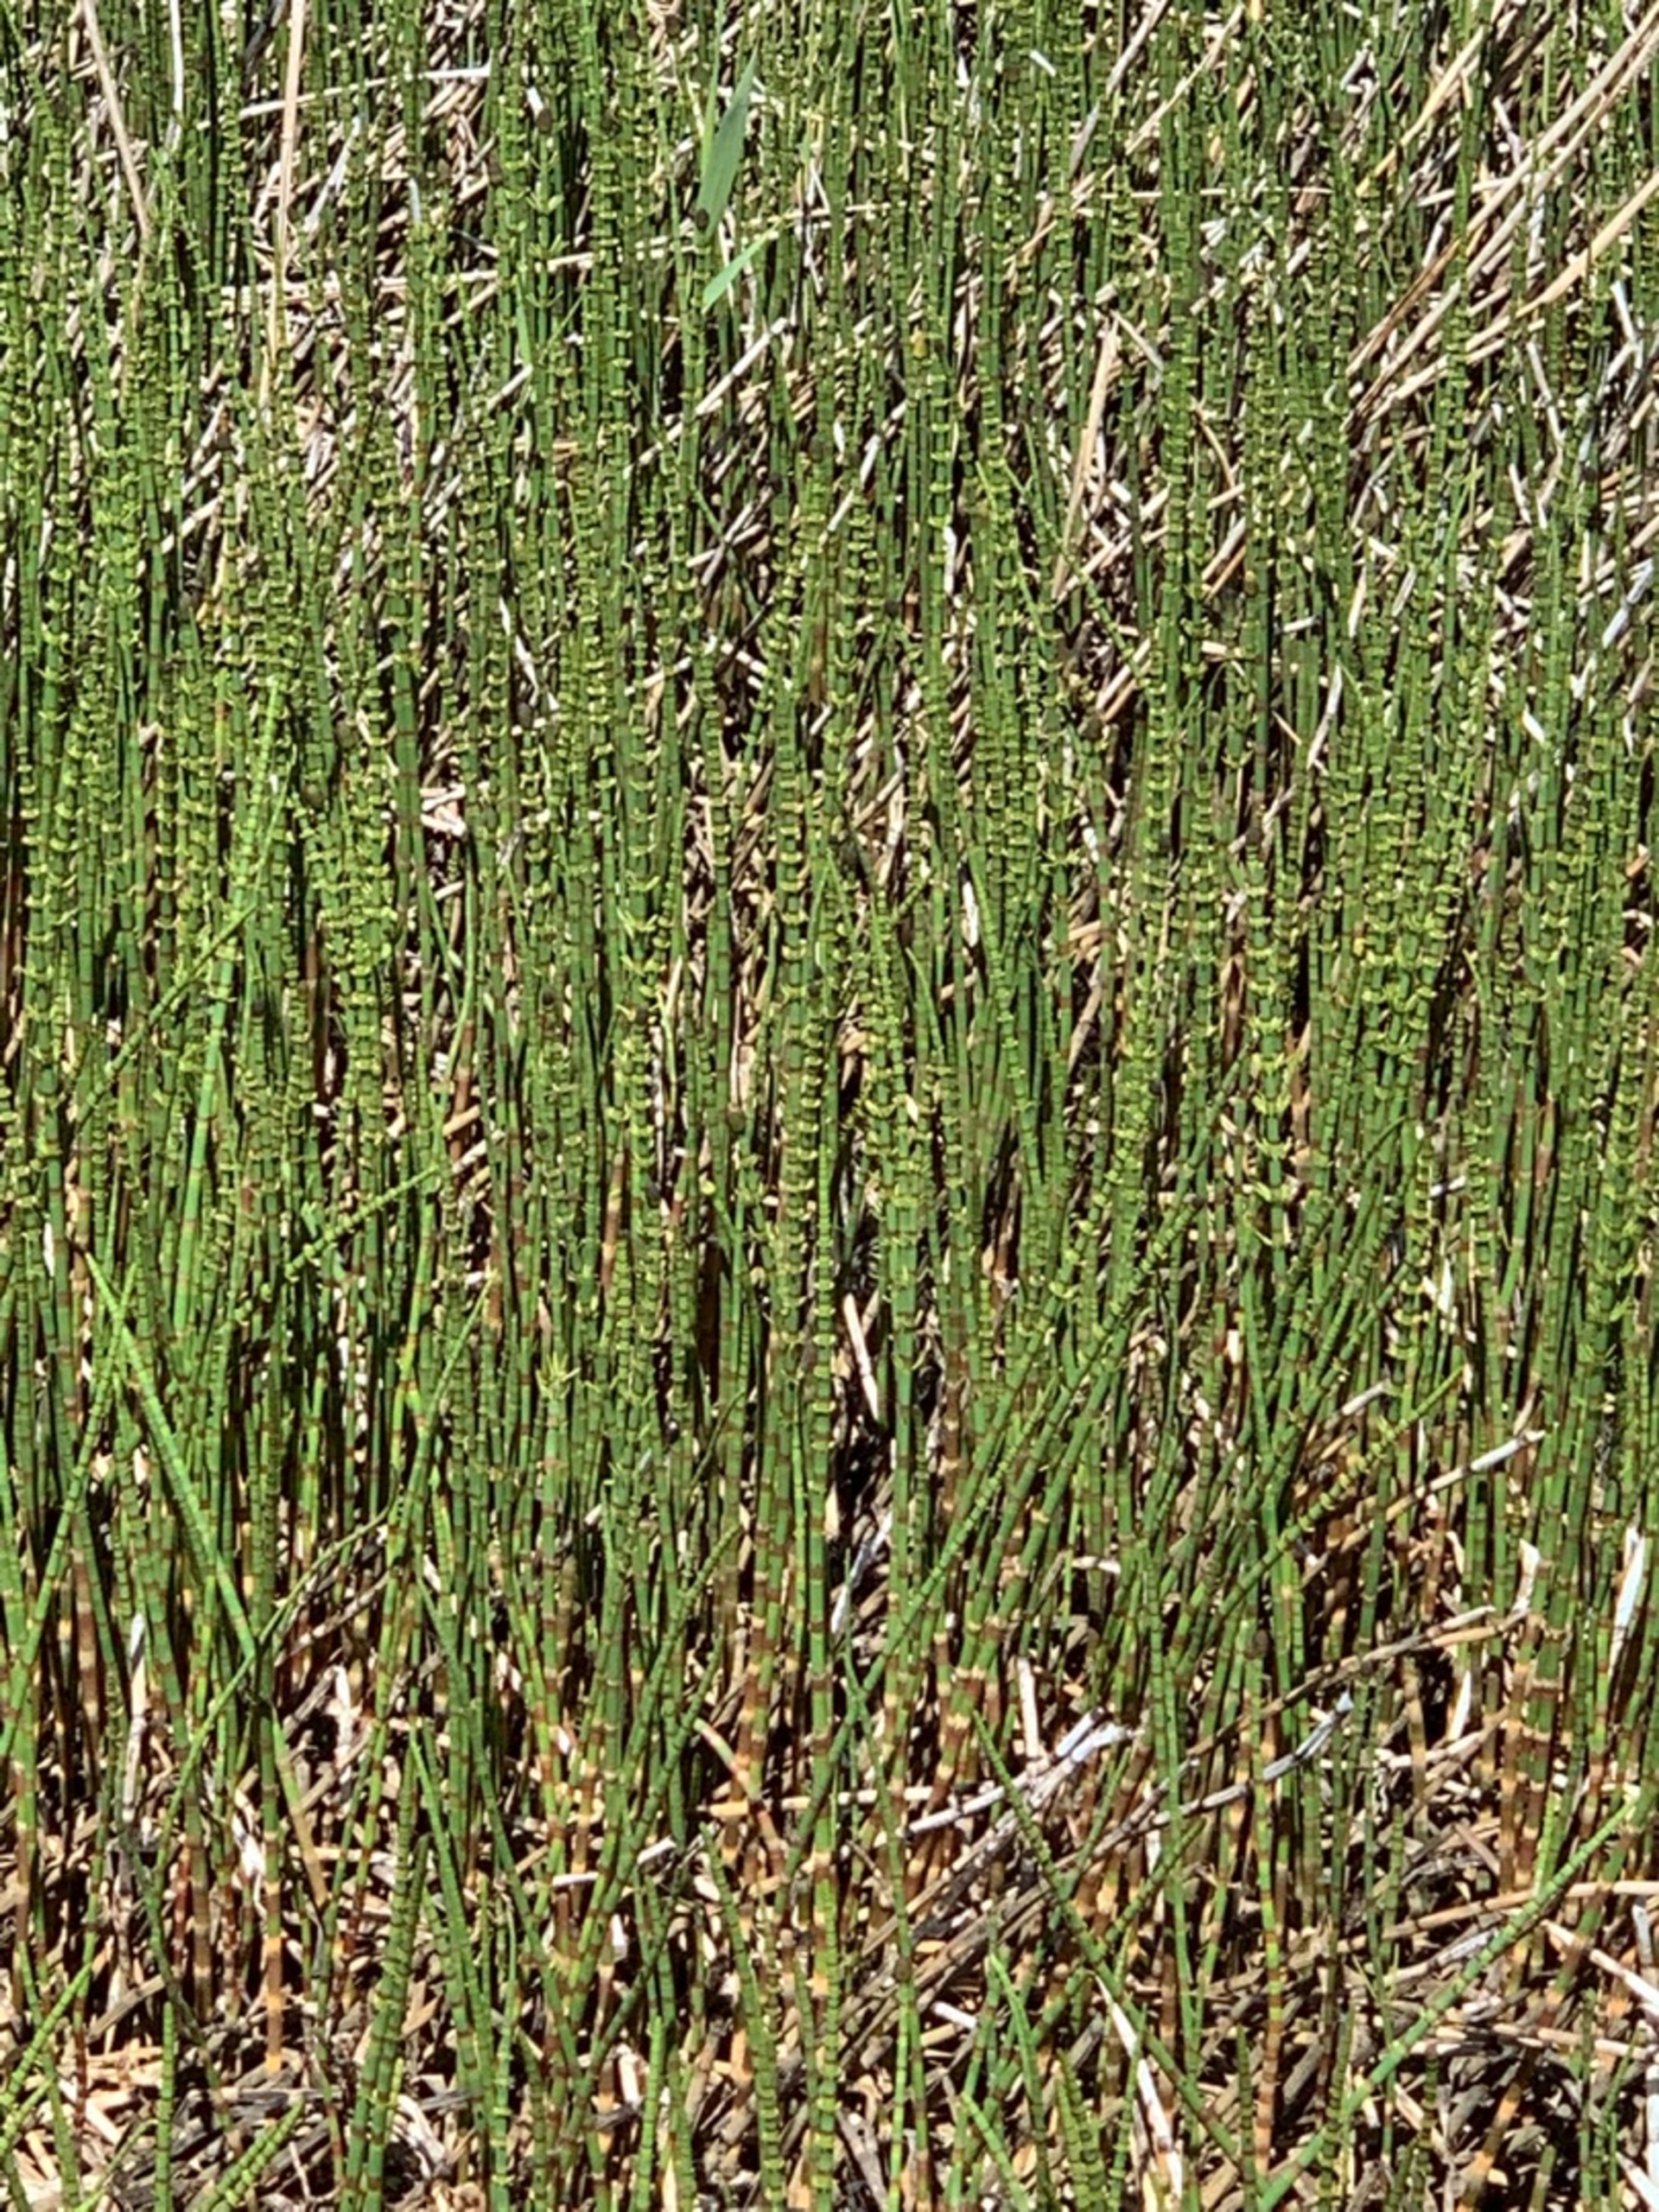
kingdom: Plantae
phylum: Tracheophyta
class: Polypodiopsida
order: Equisetales
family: Equisetaceae
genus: Equisetum
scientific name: Equisetum fluviatile
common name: Dynd-padderok
